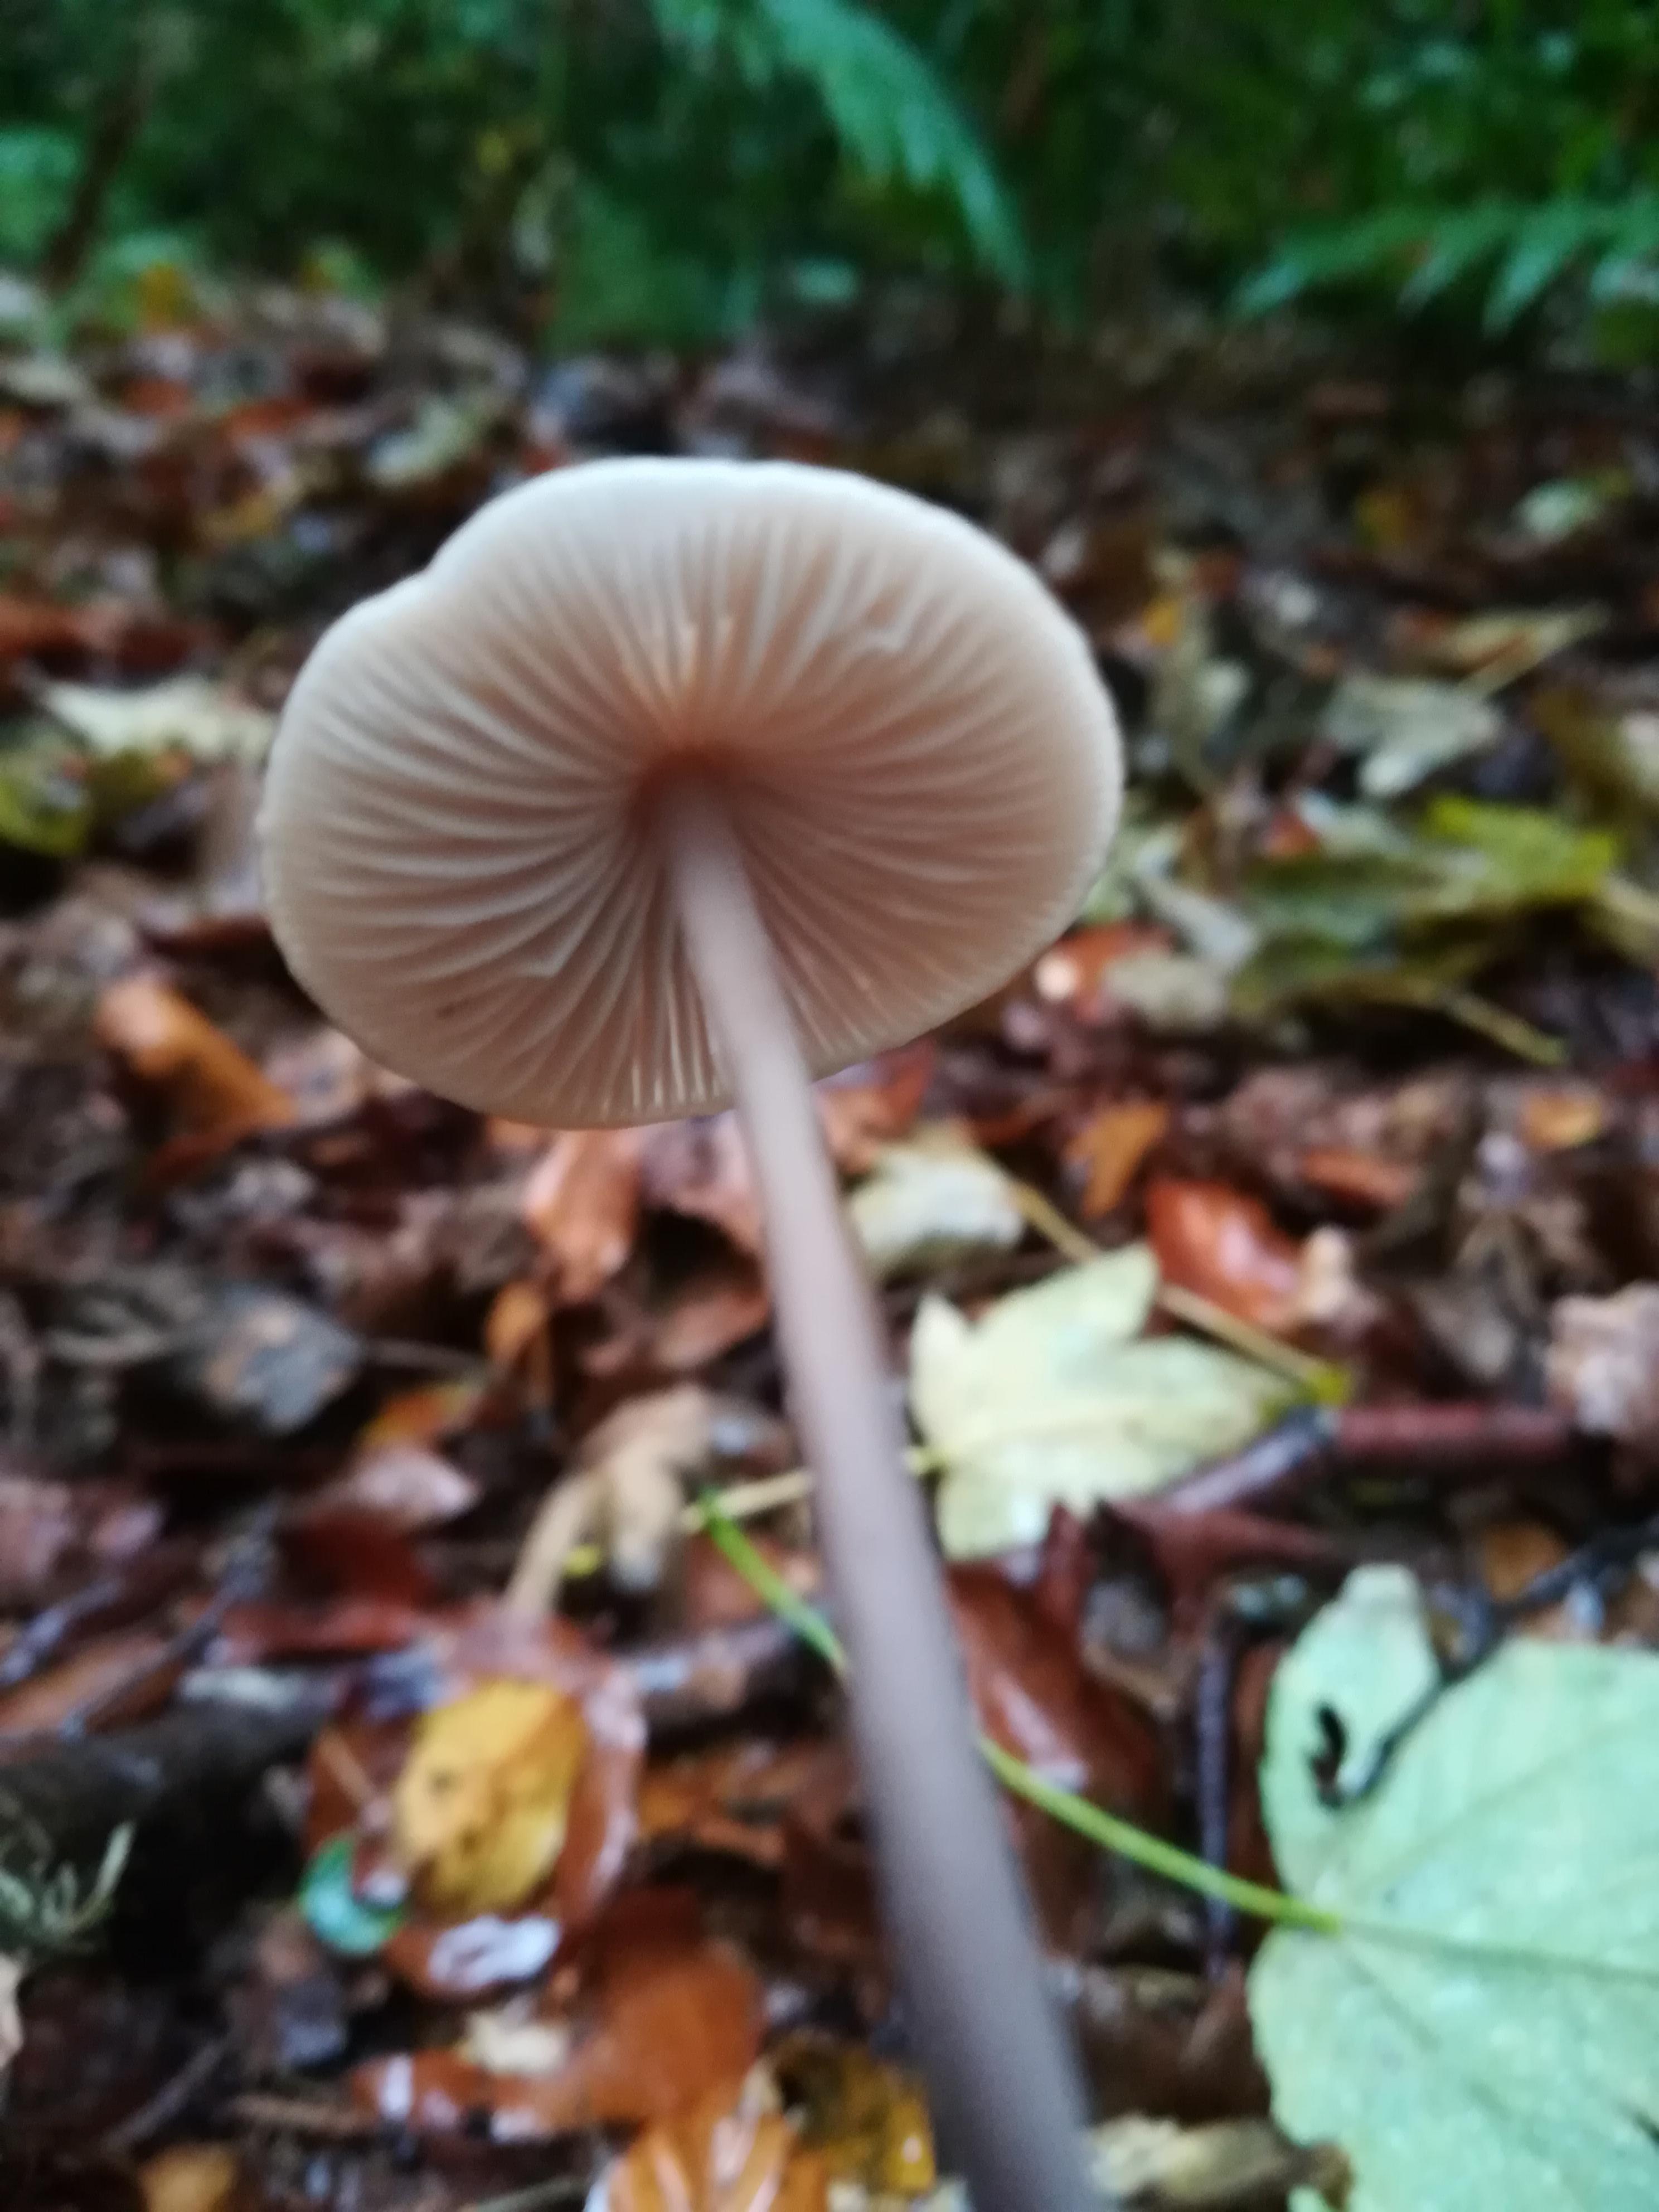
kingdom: Fungi
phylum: Basidiomycota
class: Agaricomycetes
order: Agaricales
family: Omphalotaceae
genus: Mycetinis
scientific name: Mycetinis alliaceus
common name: stor løghat
